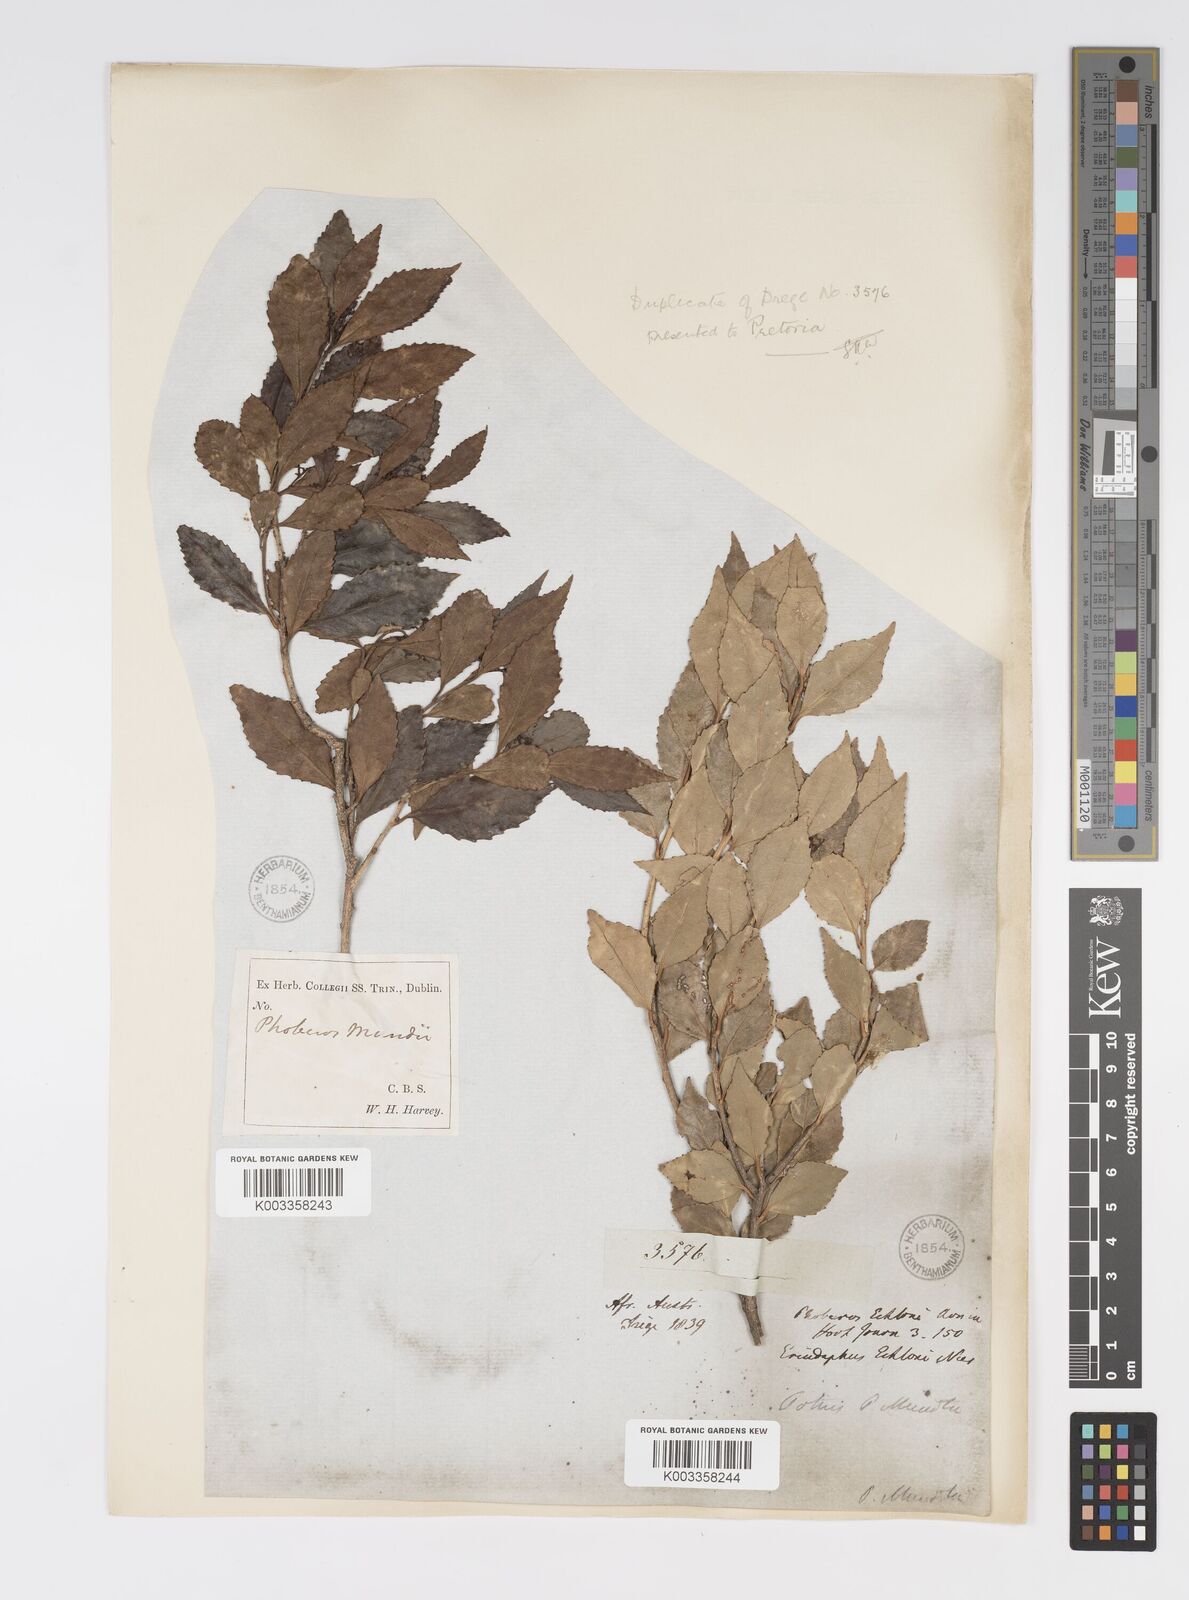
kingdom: Plantae
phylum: Tracheophyta
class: Magnoliopsida
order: Malpighiales
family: Salicaceae
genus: Scolopia
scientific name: Scolopia mundii
